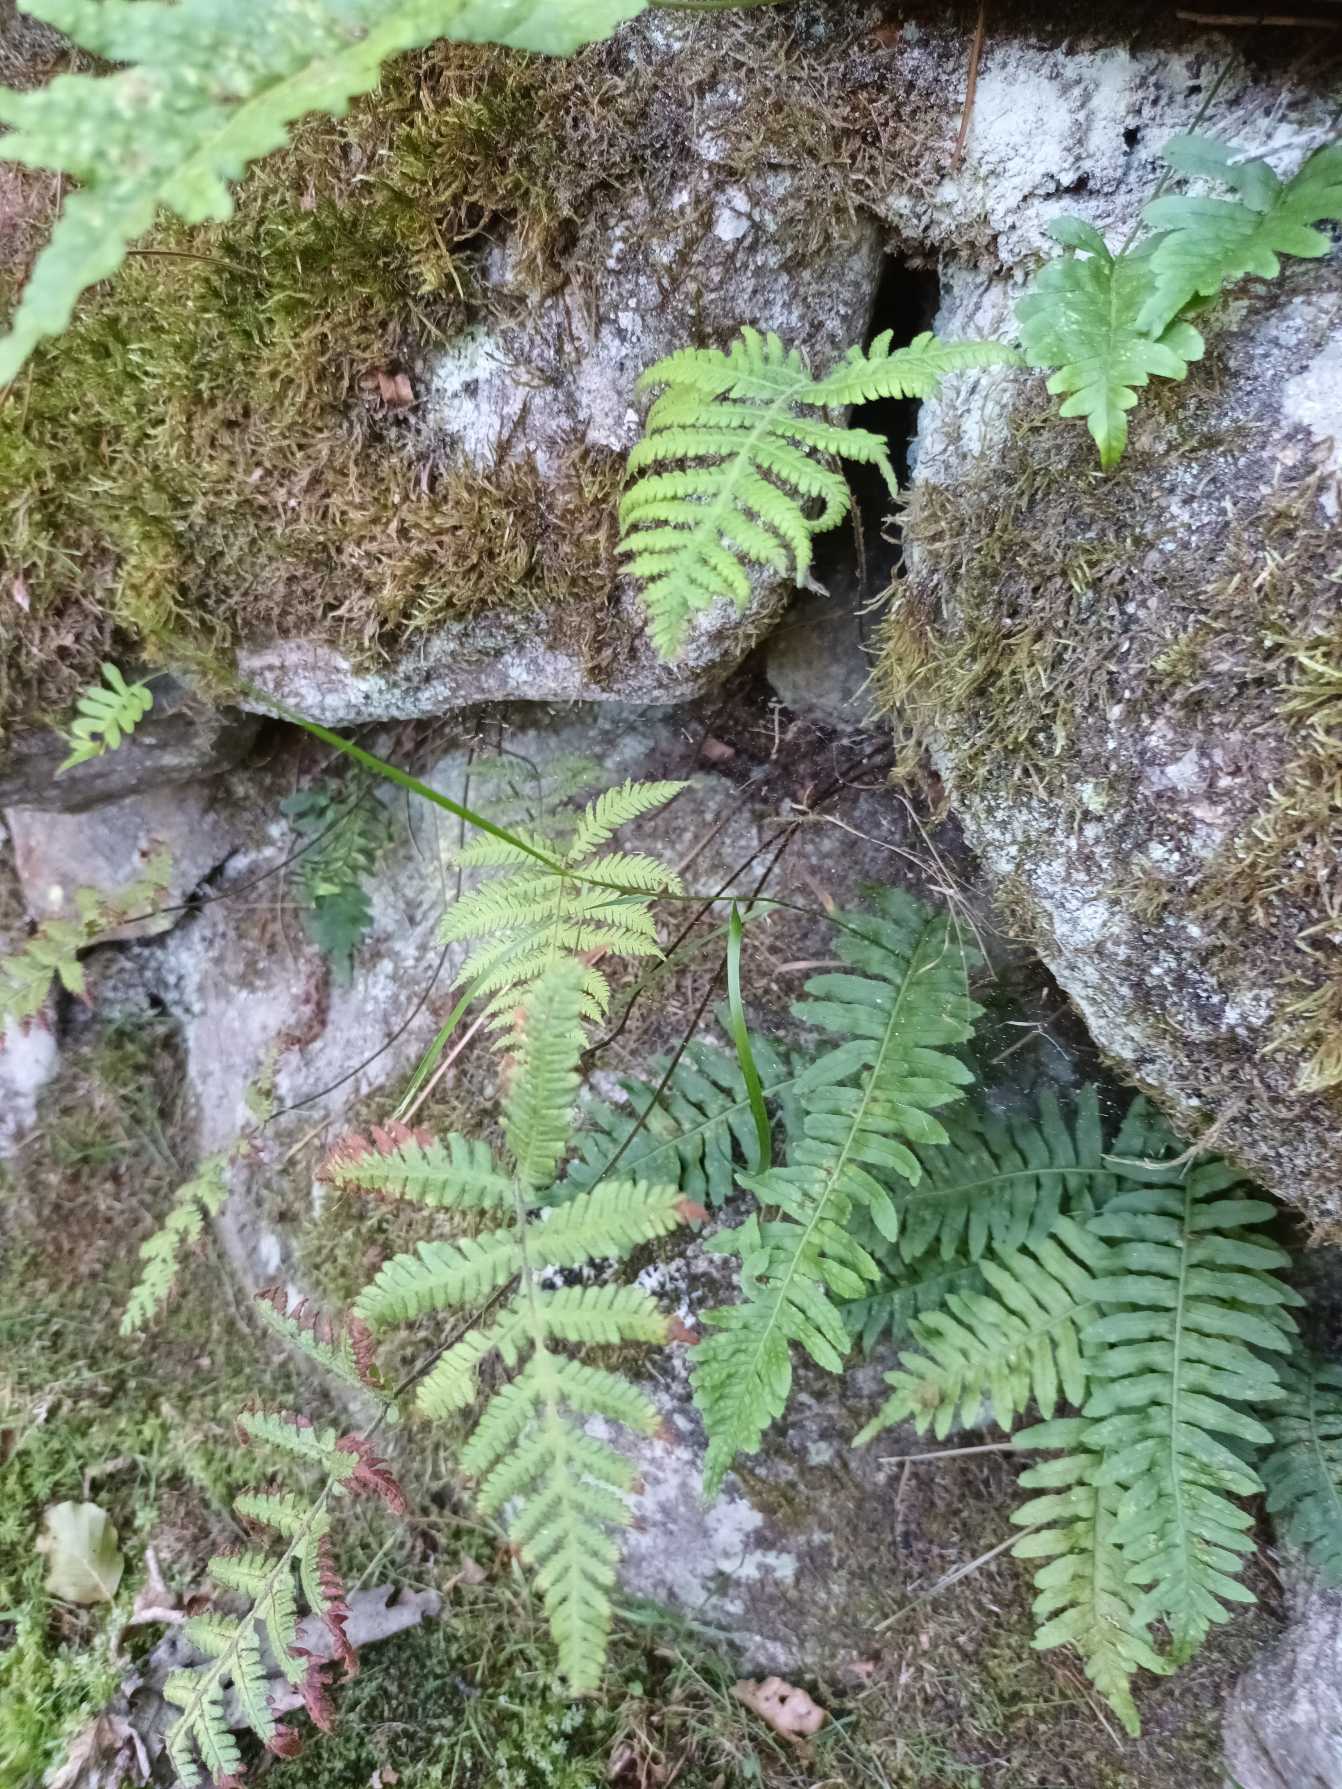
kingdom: Plantae
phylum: Tracheophyta
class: Polypodiopsida
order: Polypodiales
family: Thelypteridaceae
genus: Phegopteris
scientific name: Phegopteris connectilis
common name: Dunet egebregne
